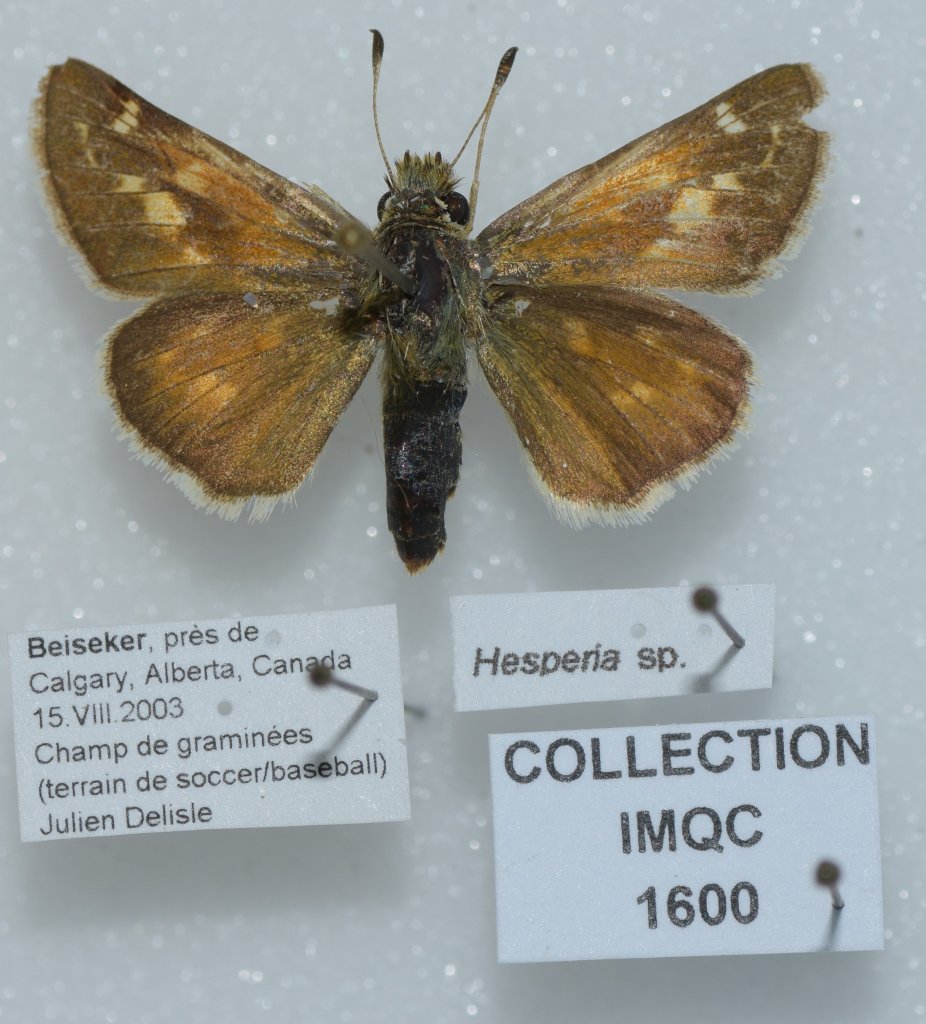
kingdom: Animalia
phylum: Arthropoda
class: Insecta
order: Lepidoptera
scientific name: Lepidoptera
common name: Butterflies
